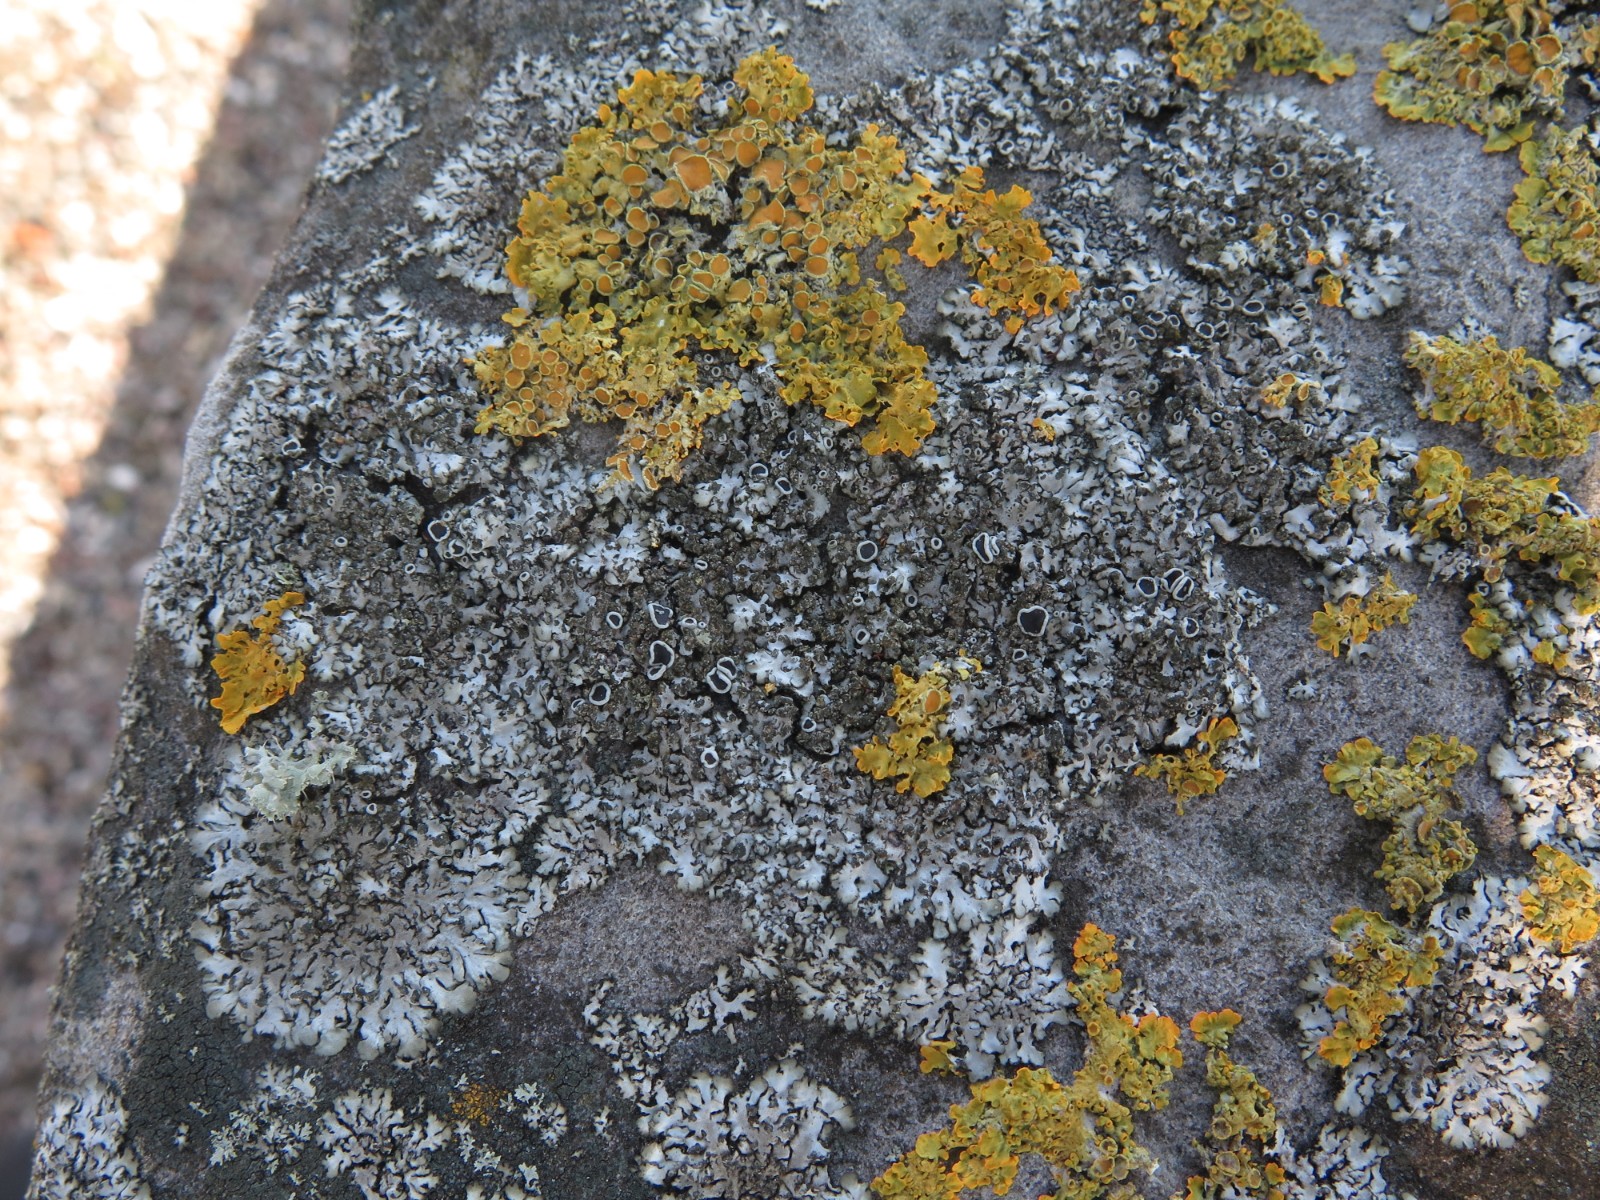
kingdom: Fungi
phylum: Ascomycota
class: Lecanoromycetes
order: Teloschistales
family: Teloschistaceae
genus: Xanthoria
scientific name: Xanthoria parietina
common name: almindelig væggelav
